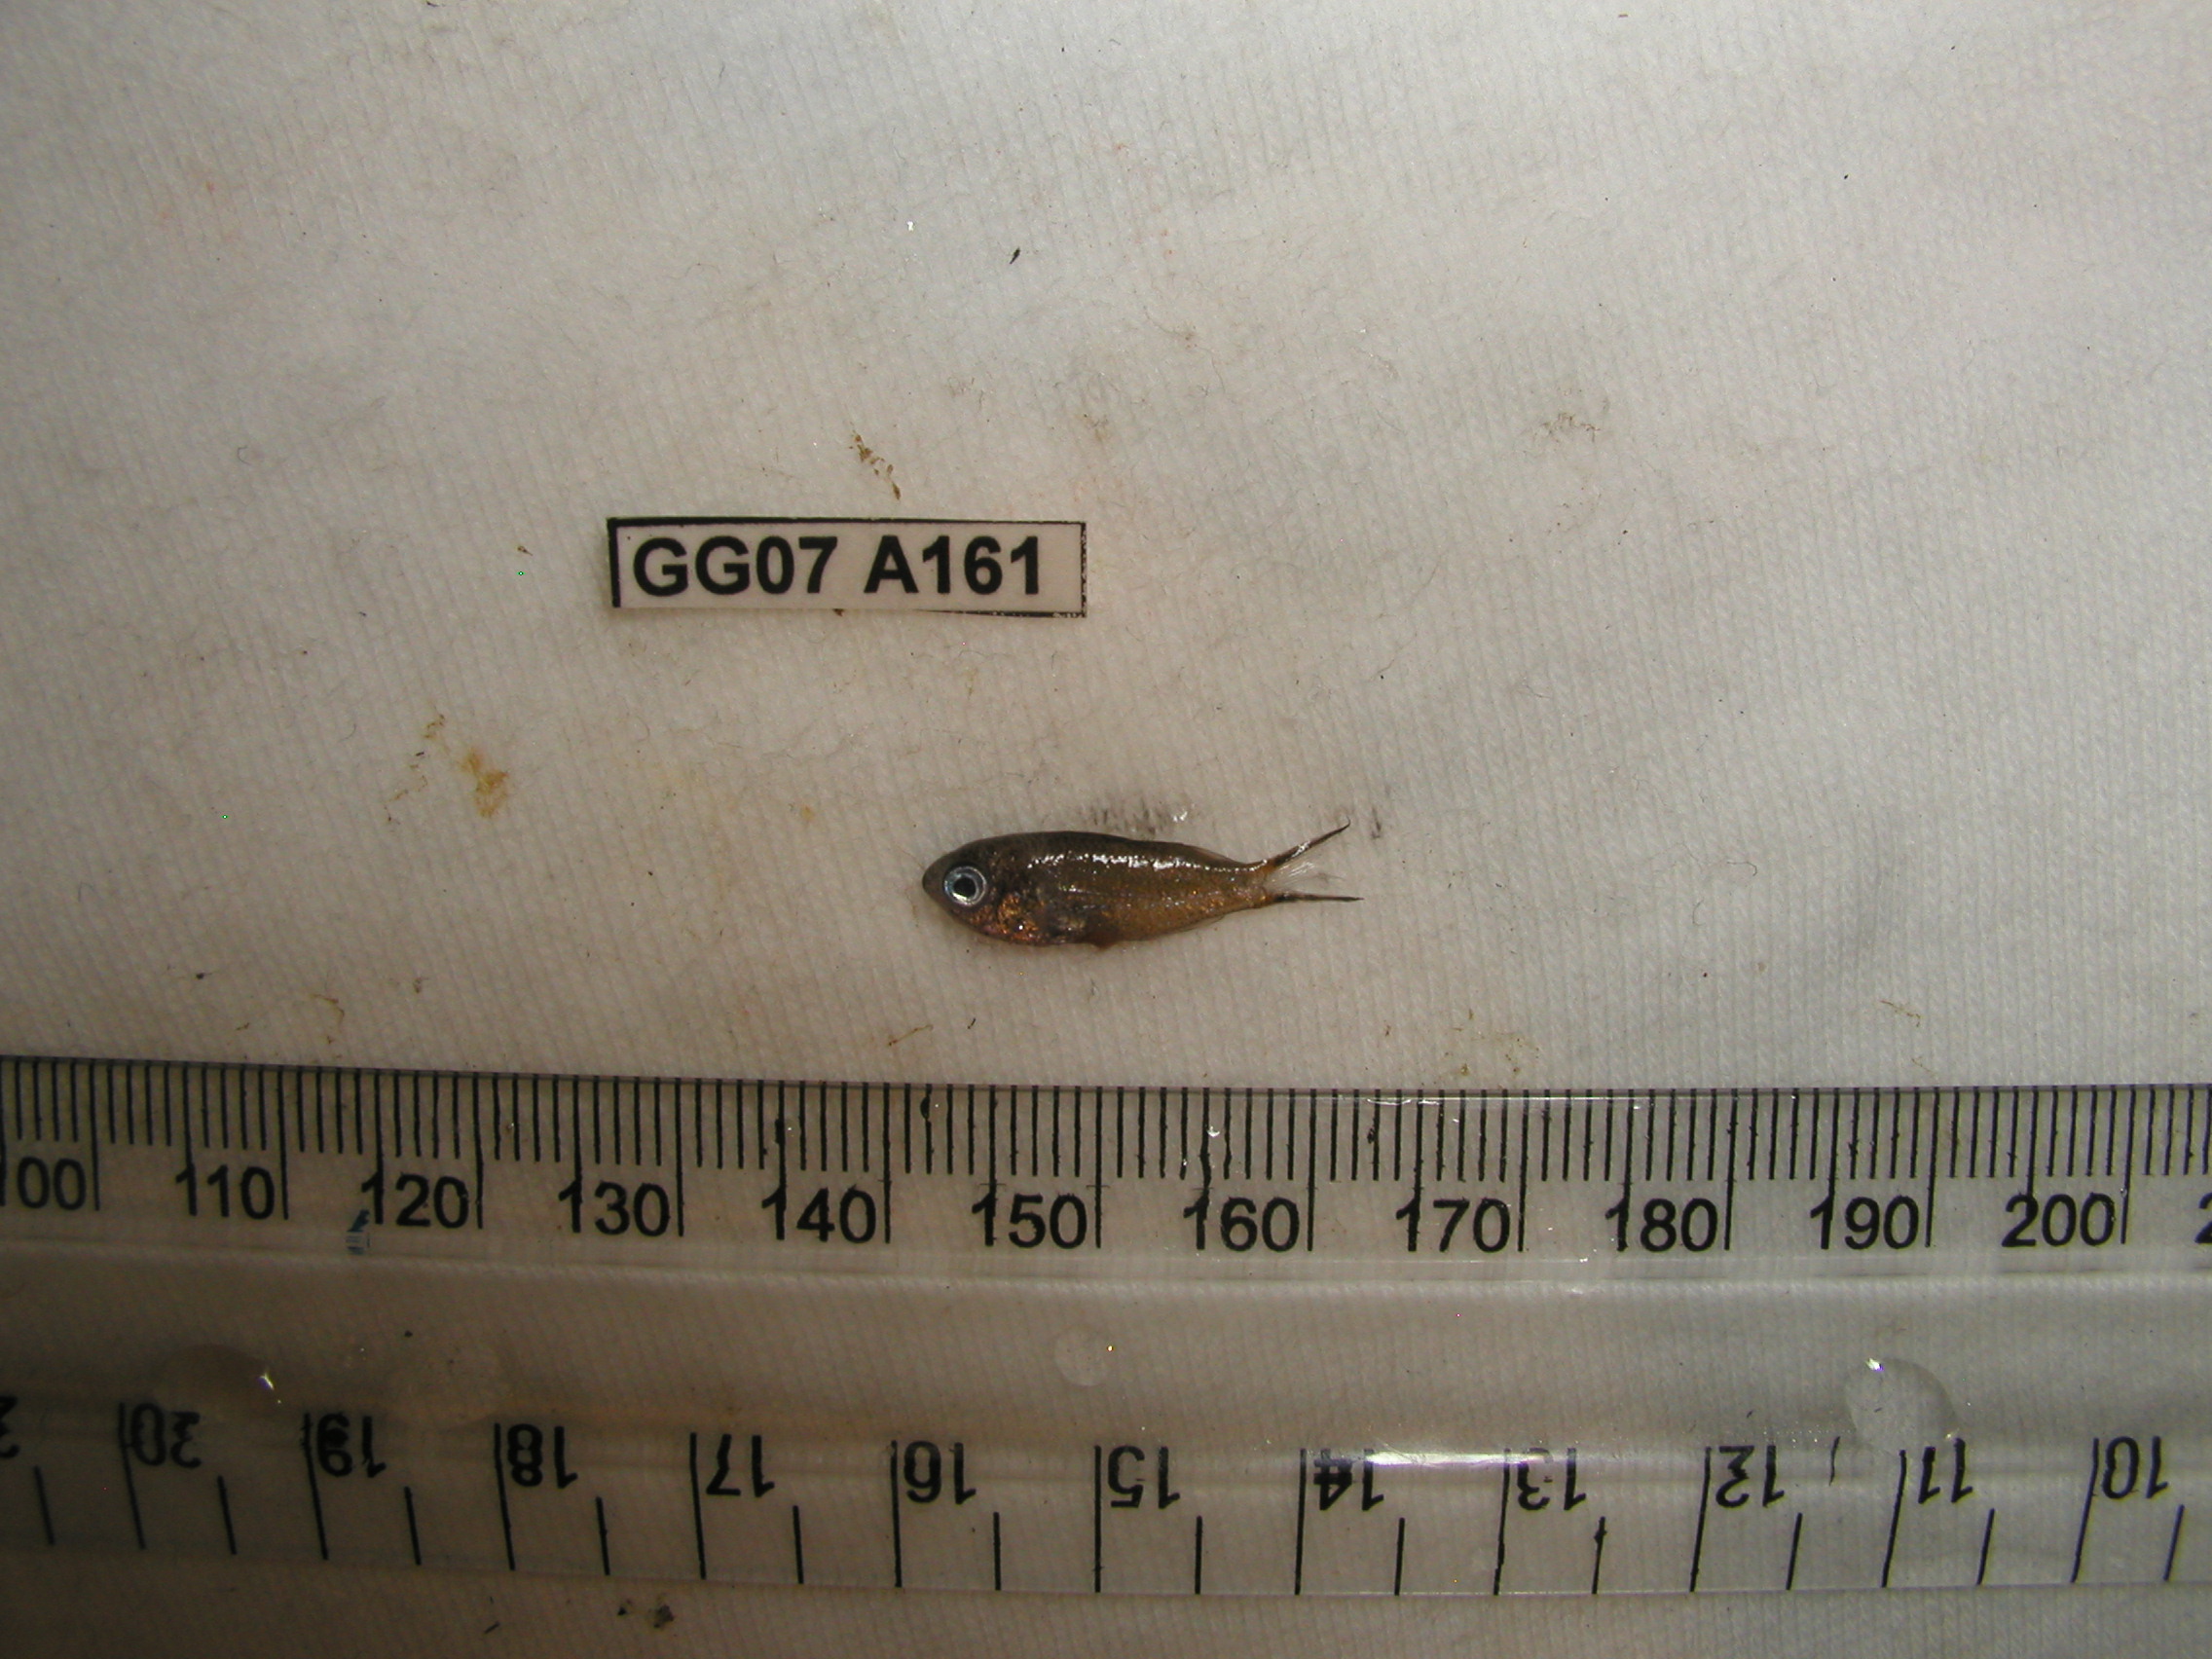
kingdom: Animalia
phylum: Chordata
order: Perciformes
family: Pomacentridae
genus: Chromis
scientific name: Chromis lepidolepis
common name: Scaly chromis
